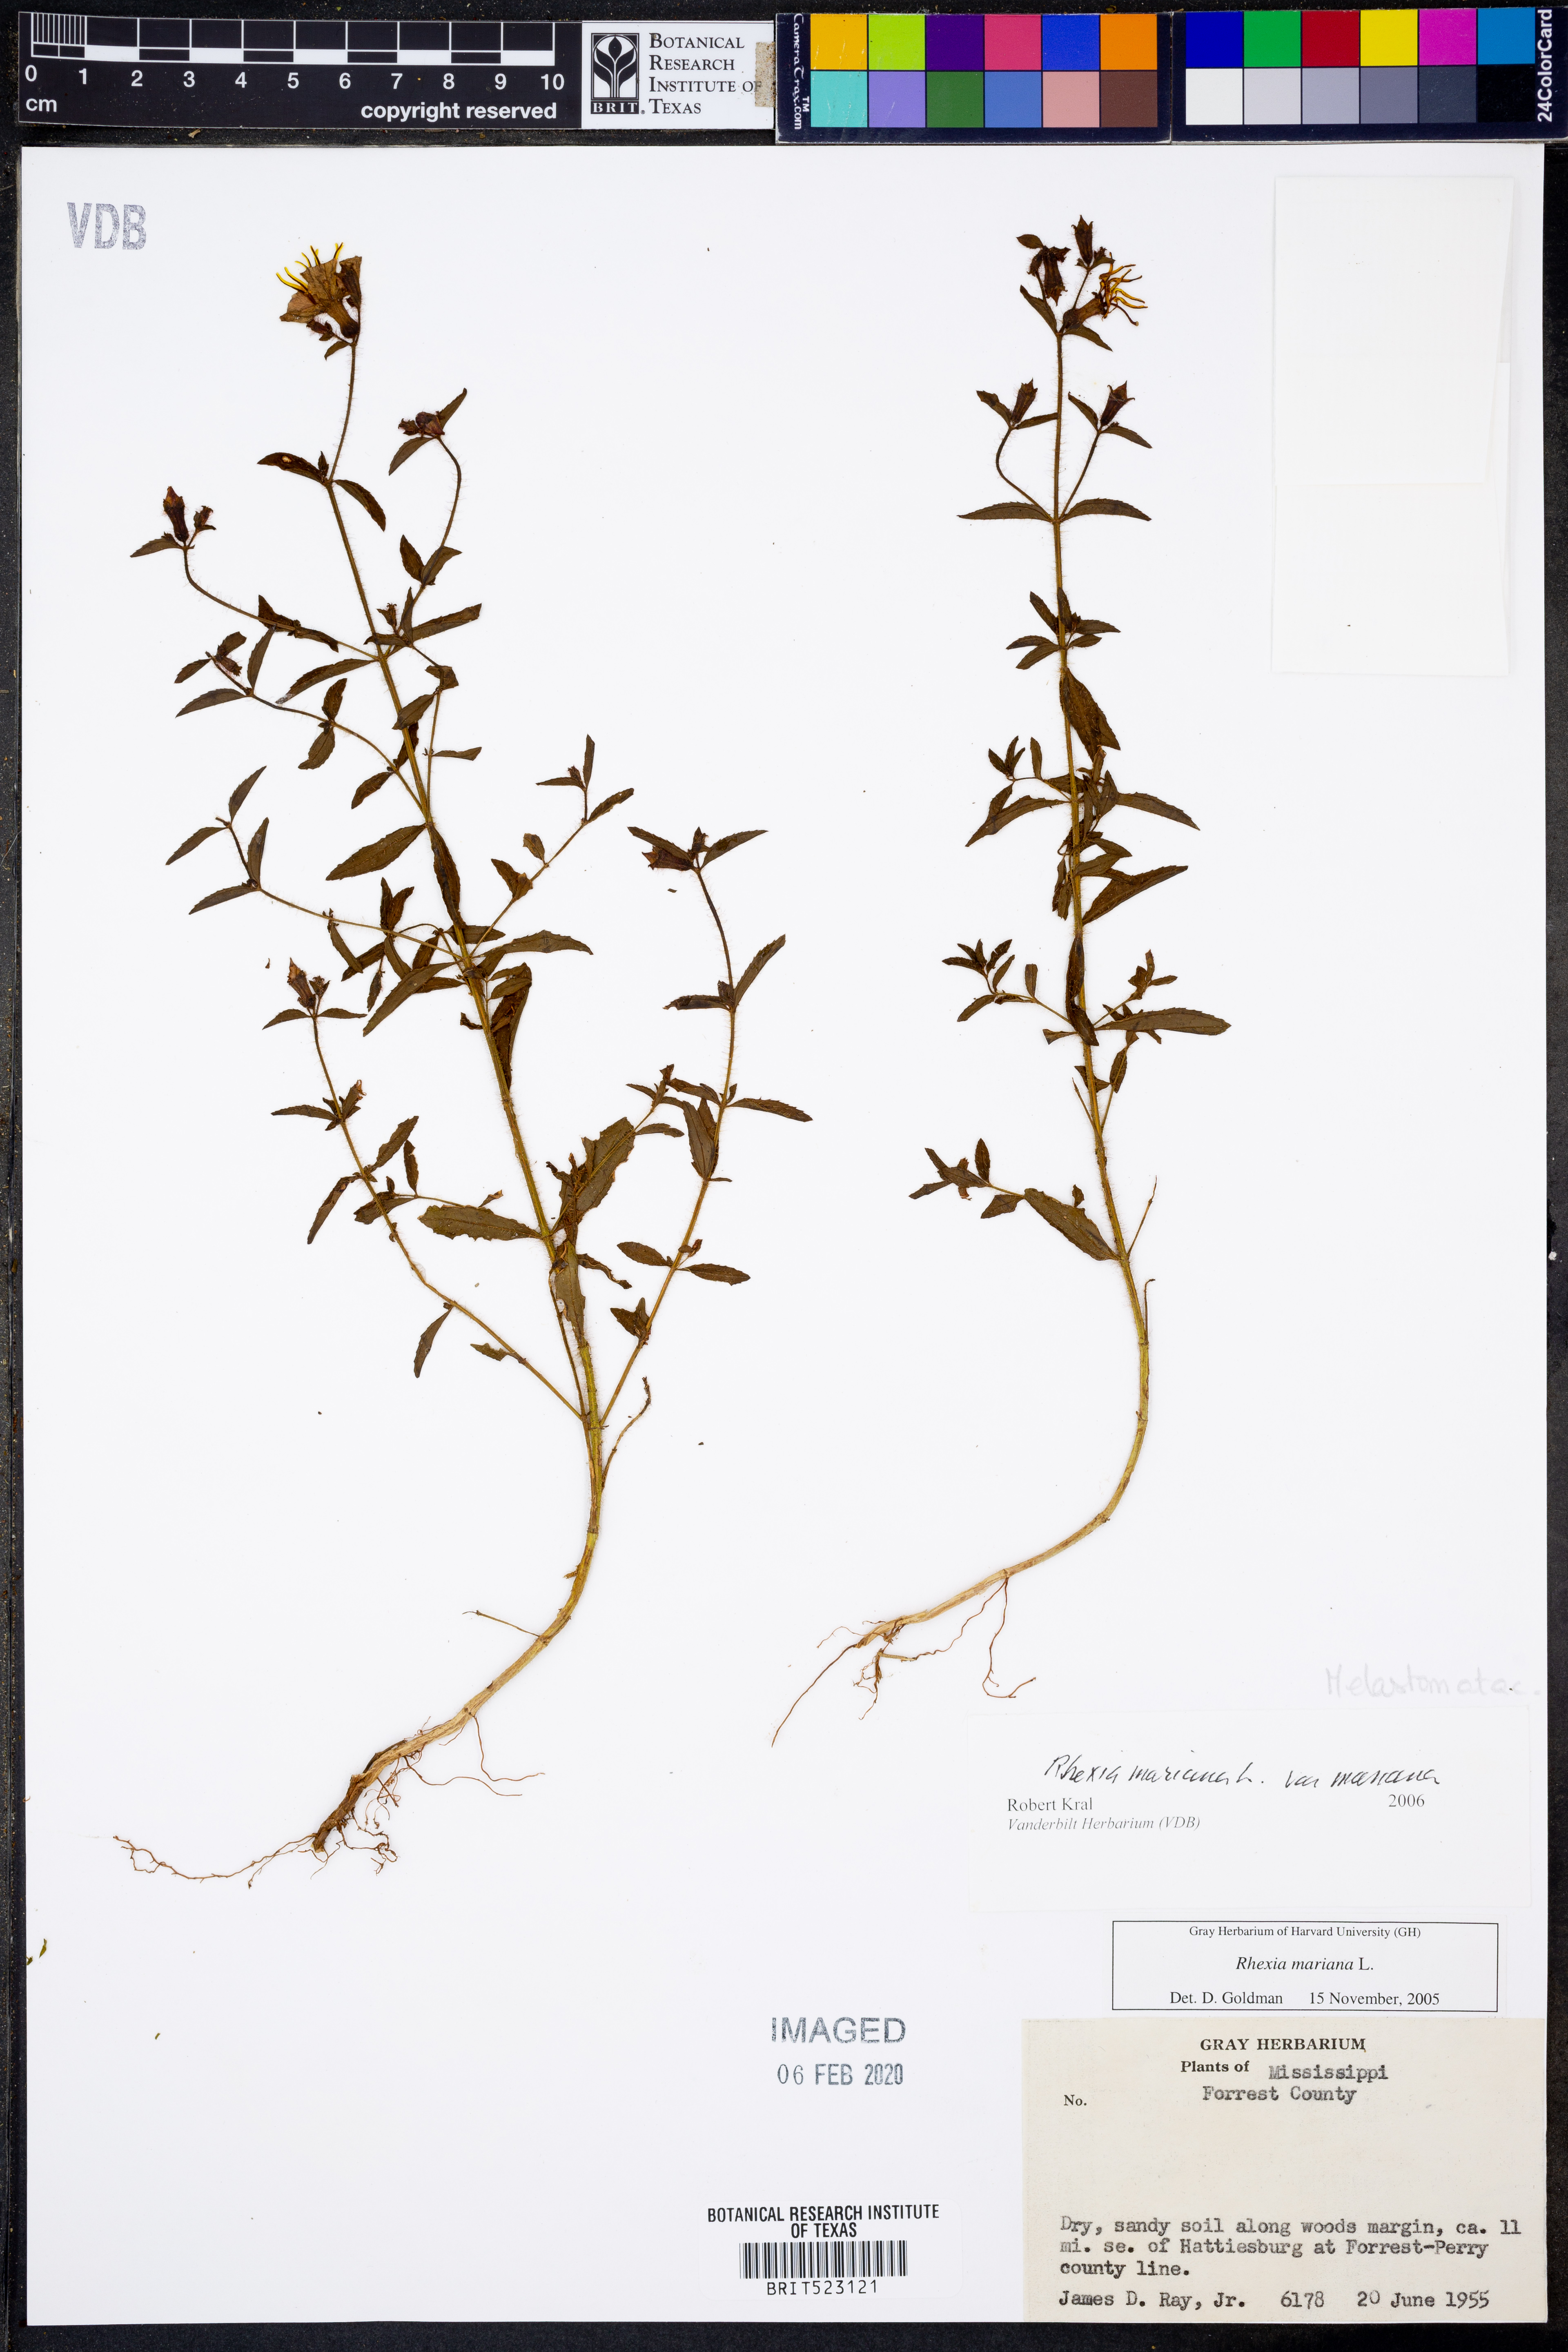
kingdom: Plantae
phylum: Tracheophyta
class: Magnoliopsida
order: Myrtales
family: Melastomataceae
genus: Rhexia
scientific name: Rhexia mariana
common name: Dull meadow-pitcher
